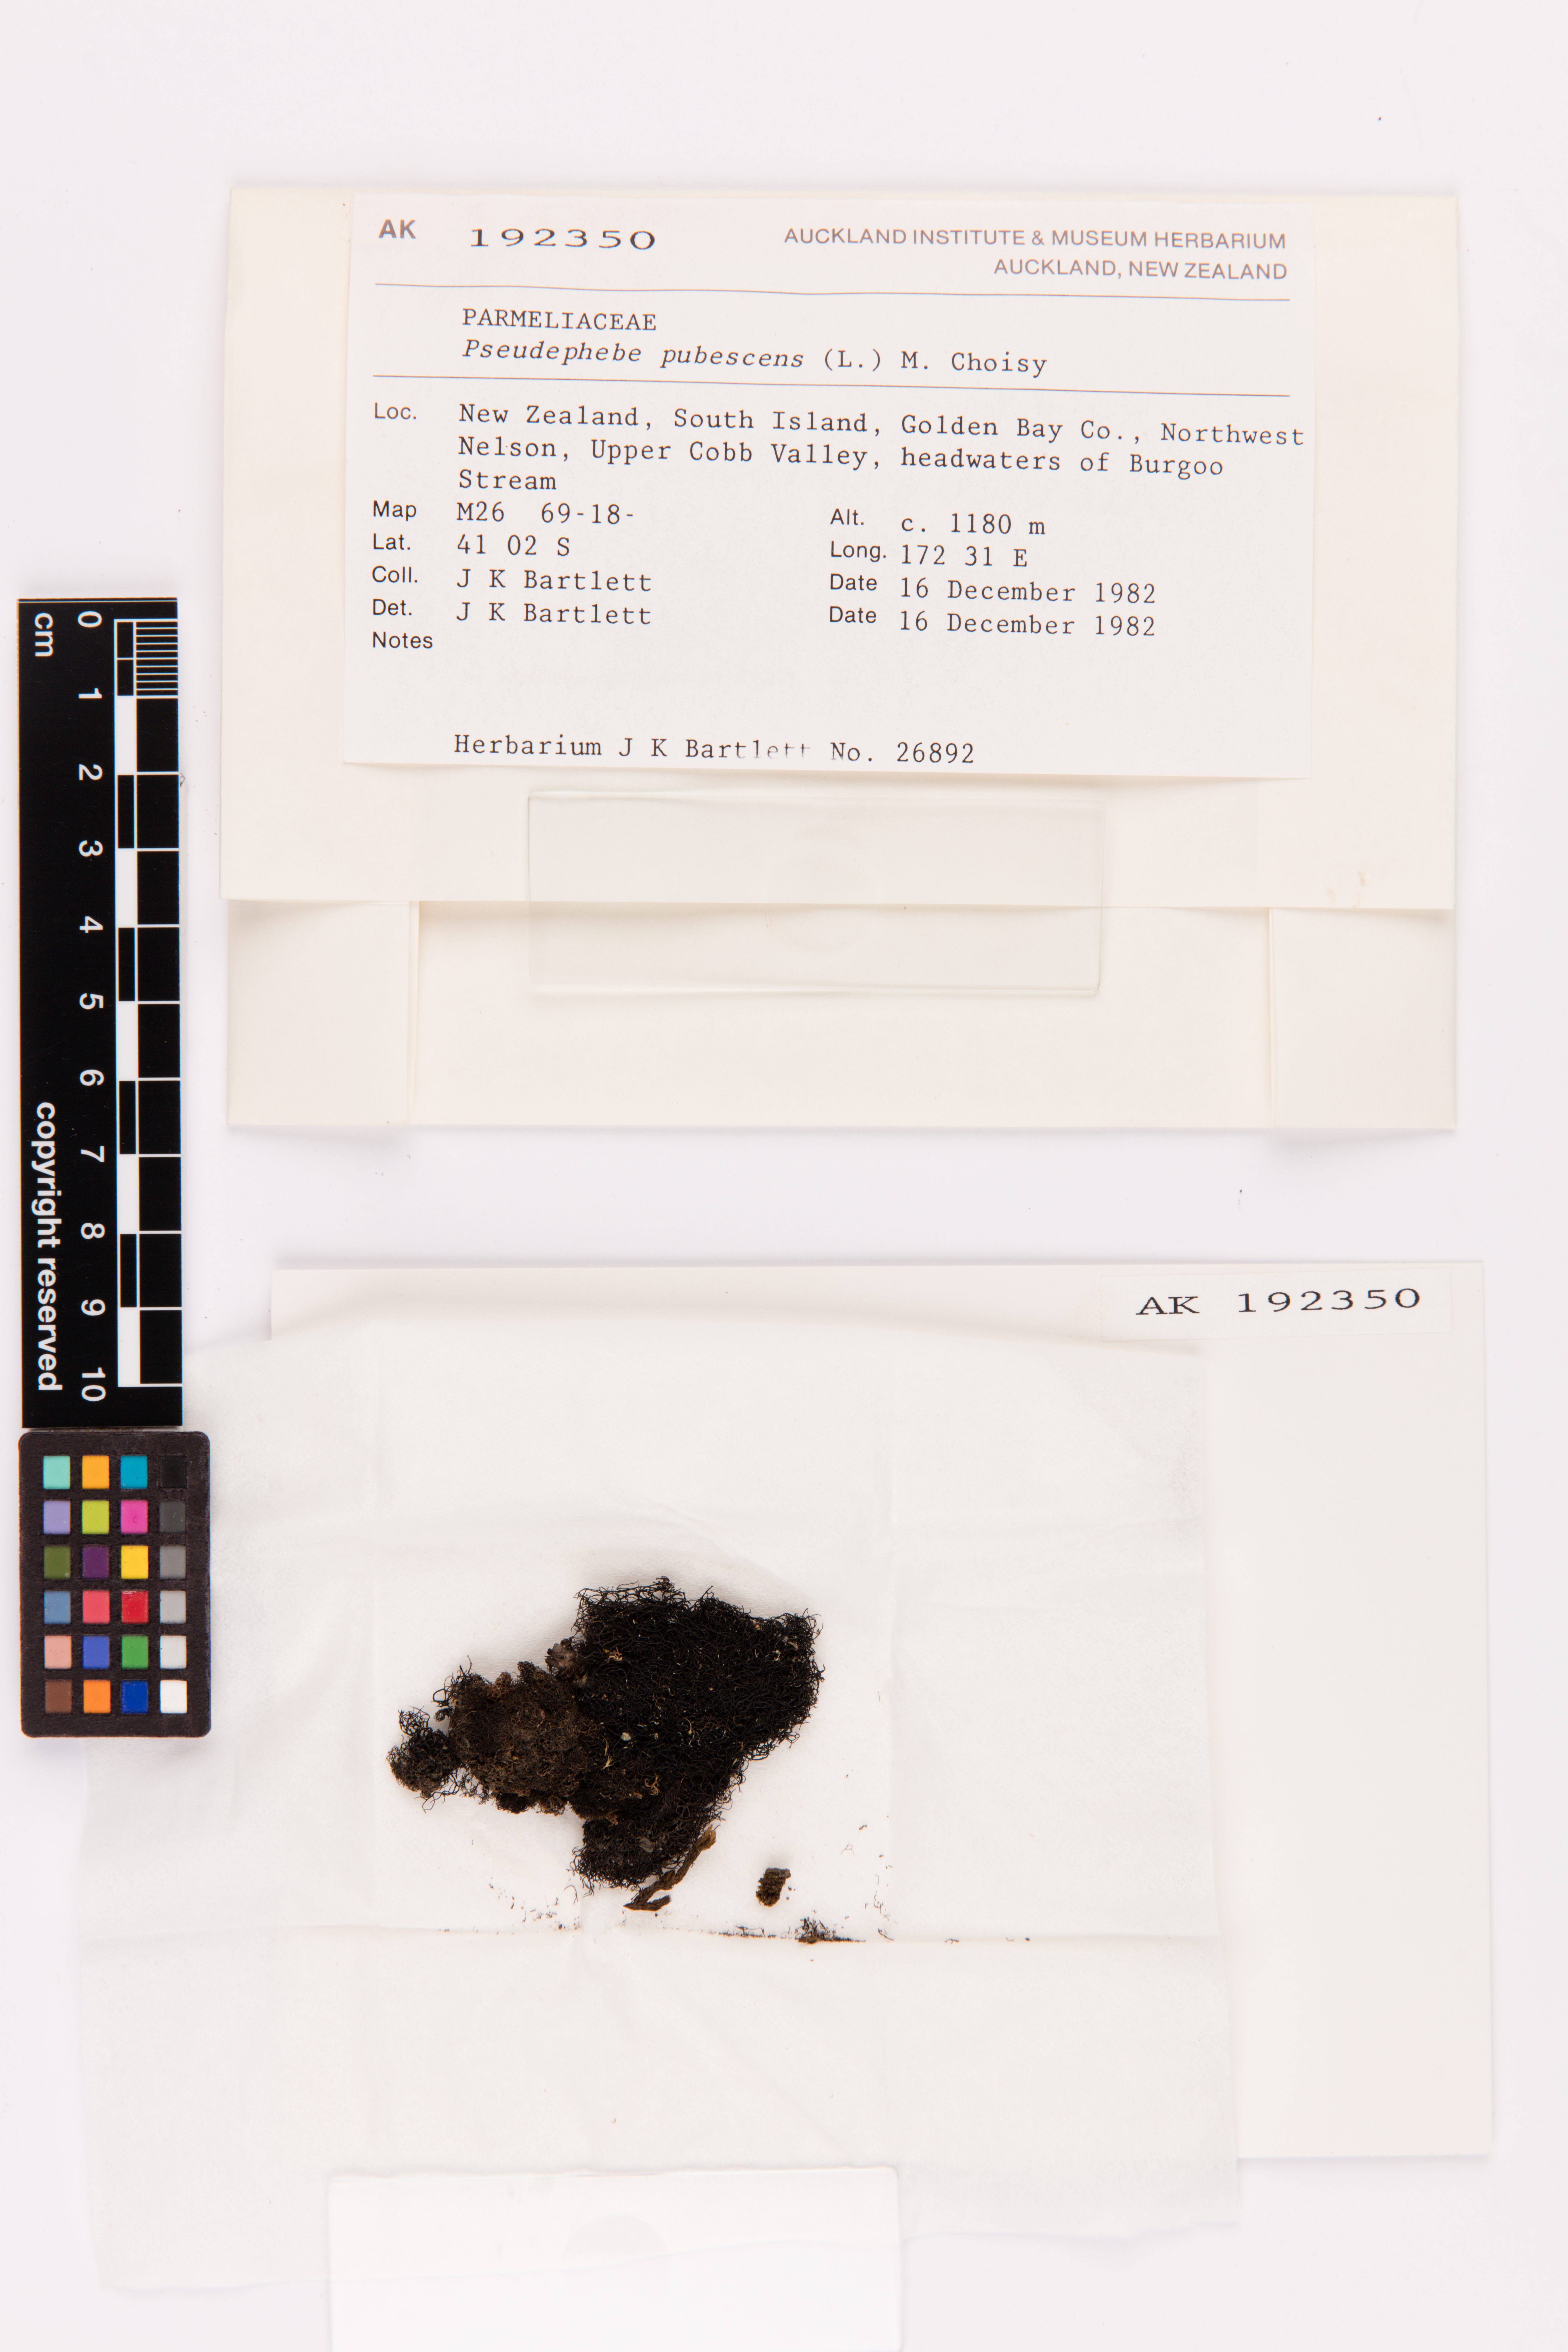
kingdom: Fungi
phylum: Ascomycota
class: Lecanoromycetes
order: Lecanorales
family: Parmeliaceae
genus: Pseudephebe
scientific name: Pseudephebe pubescens
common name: Fine rockwool lichen
